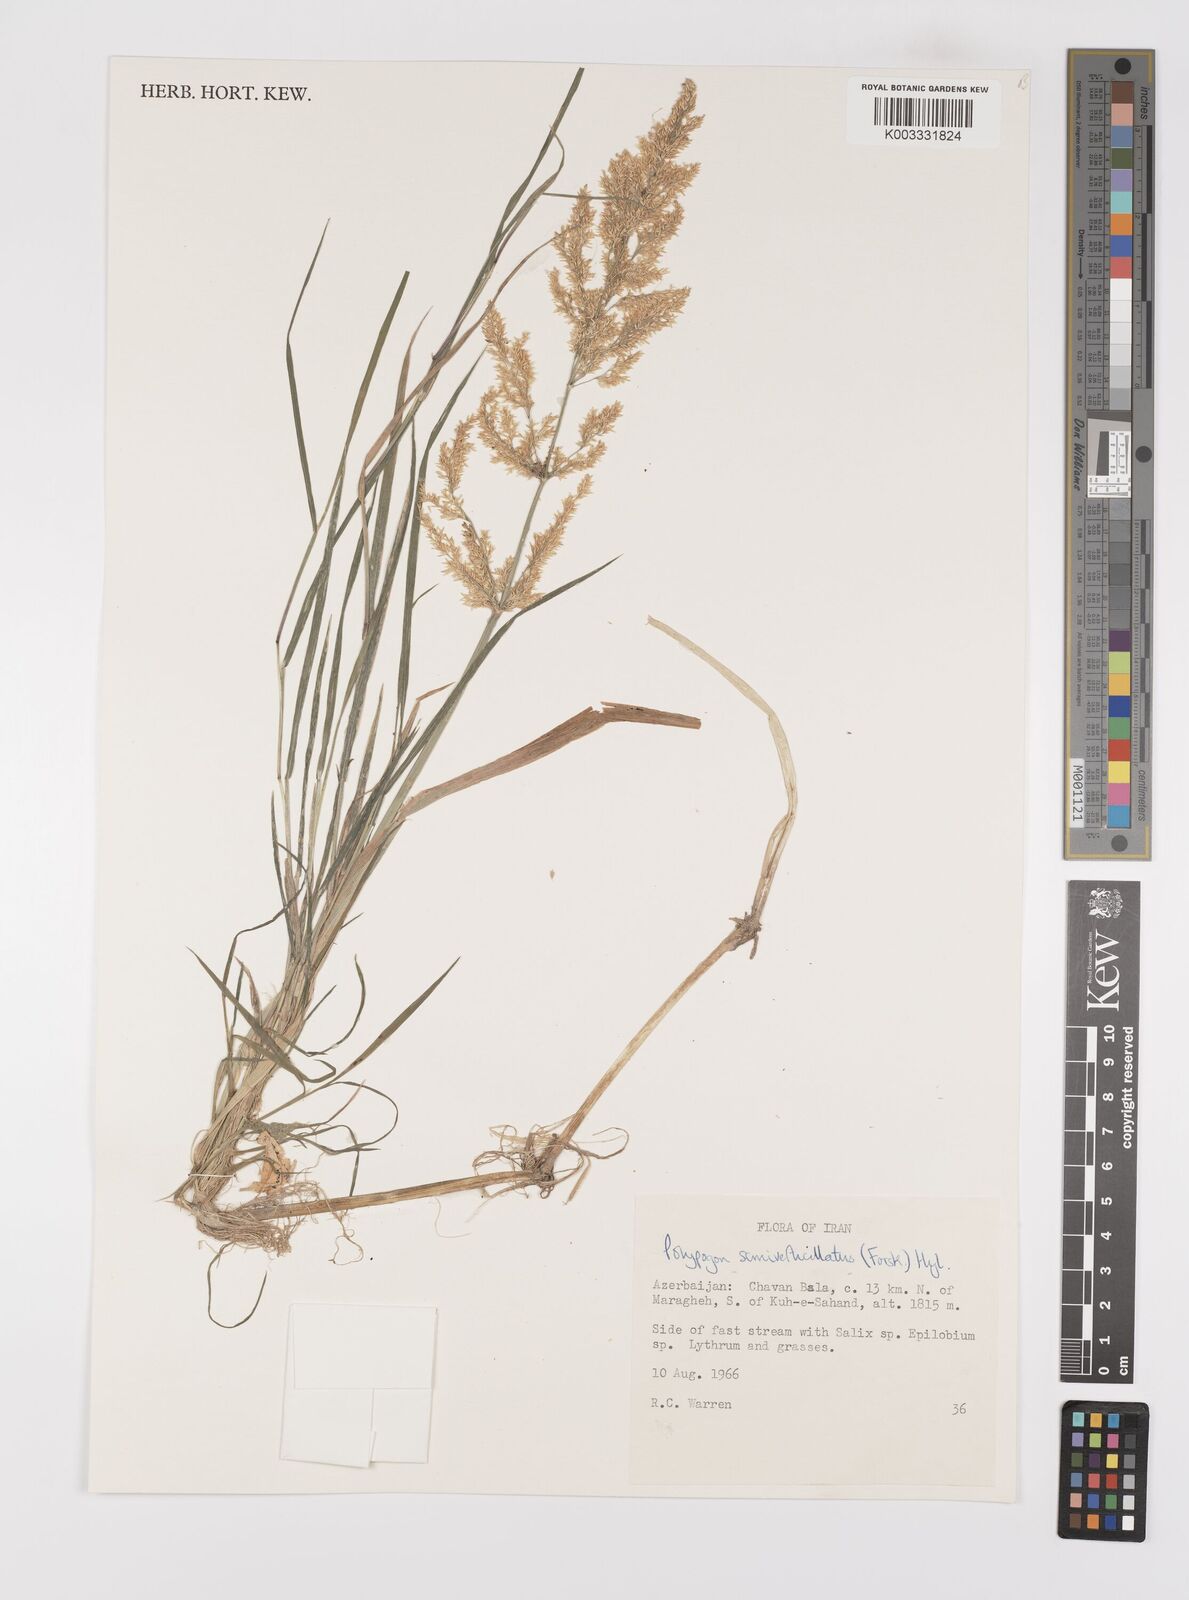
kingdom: Plantae
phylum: Tracheophyta
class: Liliopsida
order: Poales
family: Poaceae
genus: Polypogon
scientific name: Polypogon viridis
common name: Water bent
